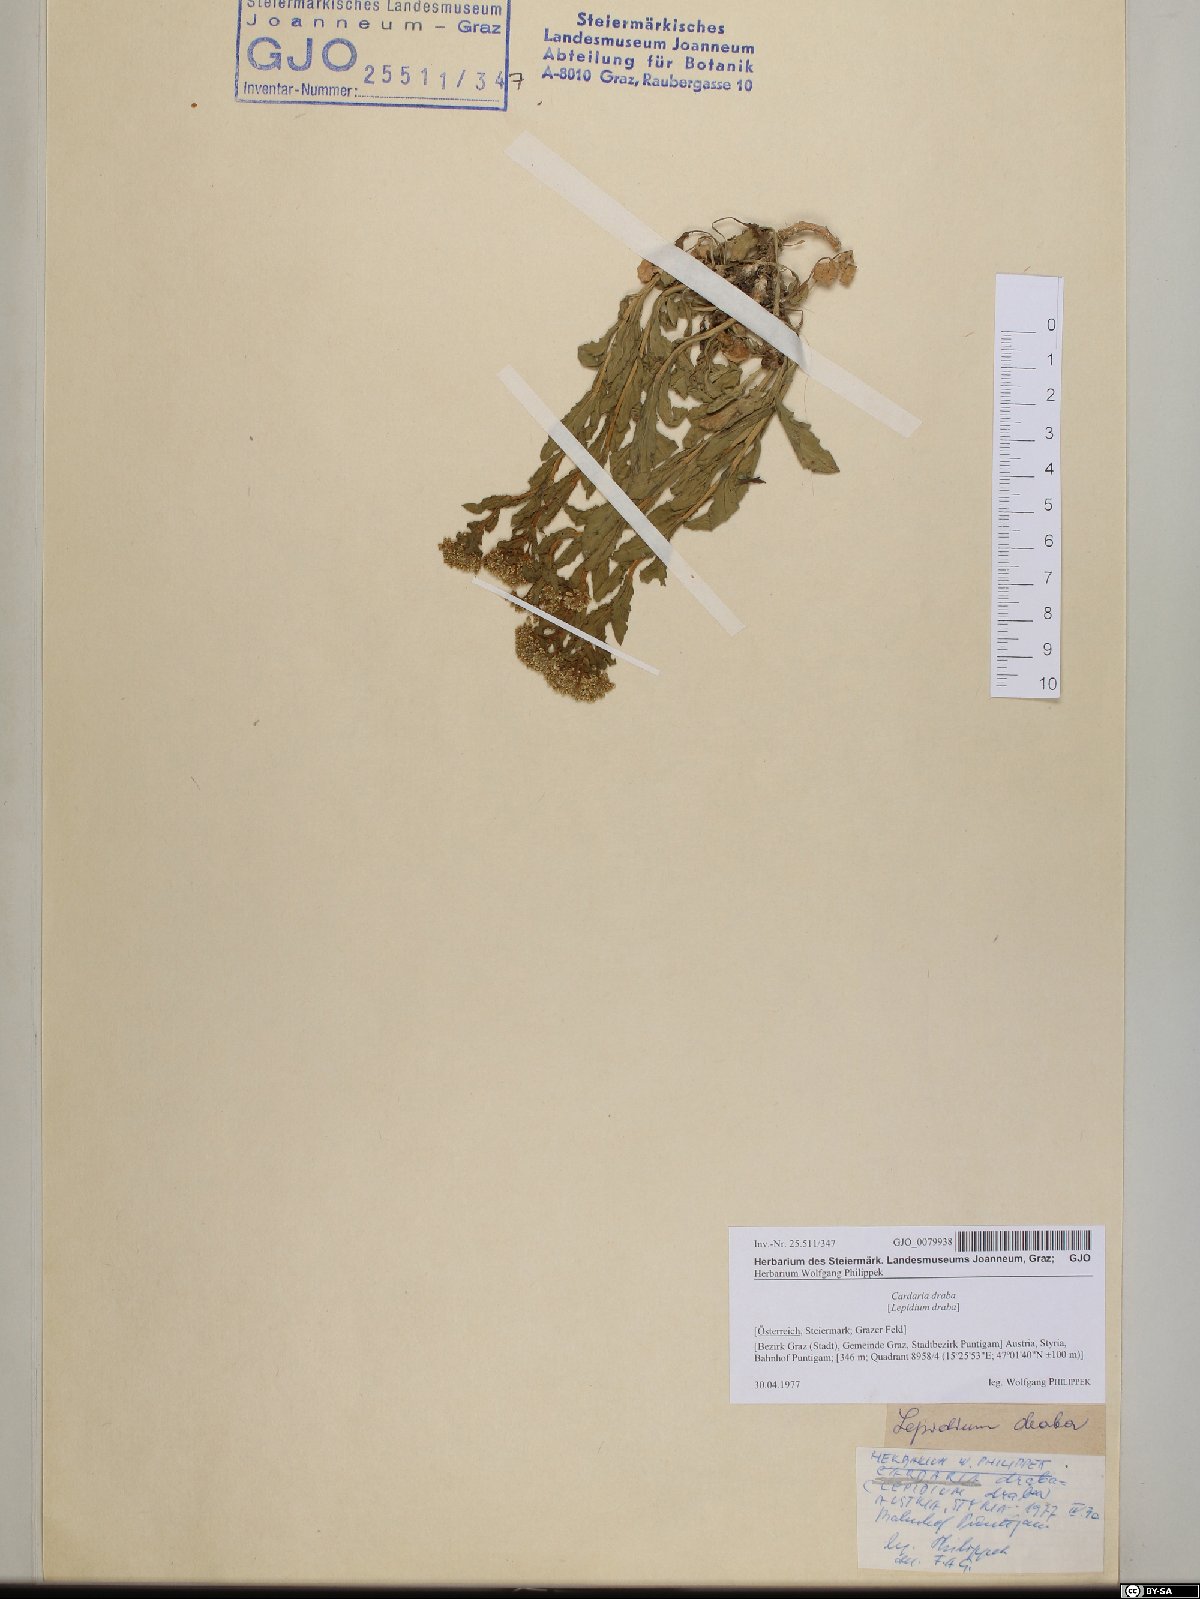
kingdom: Plantae
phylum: Tracheophyta
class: Magnoliopsida
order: Brassicales
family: Brassicaceae
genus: Lepidium
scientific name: Lepidium draba
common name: Hoary cress
